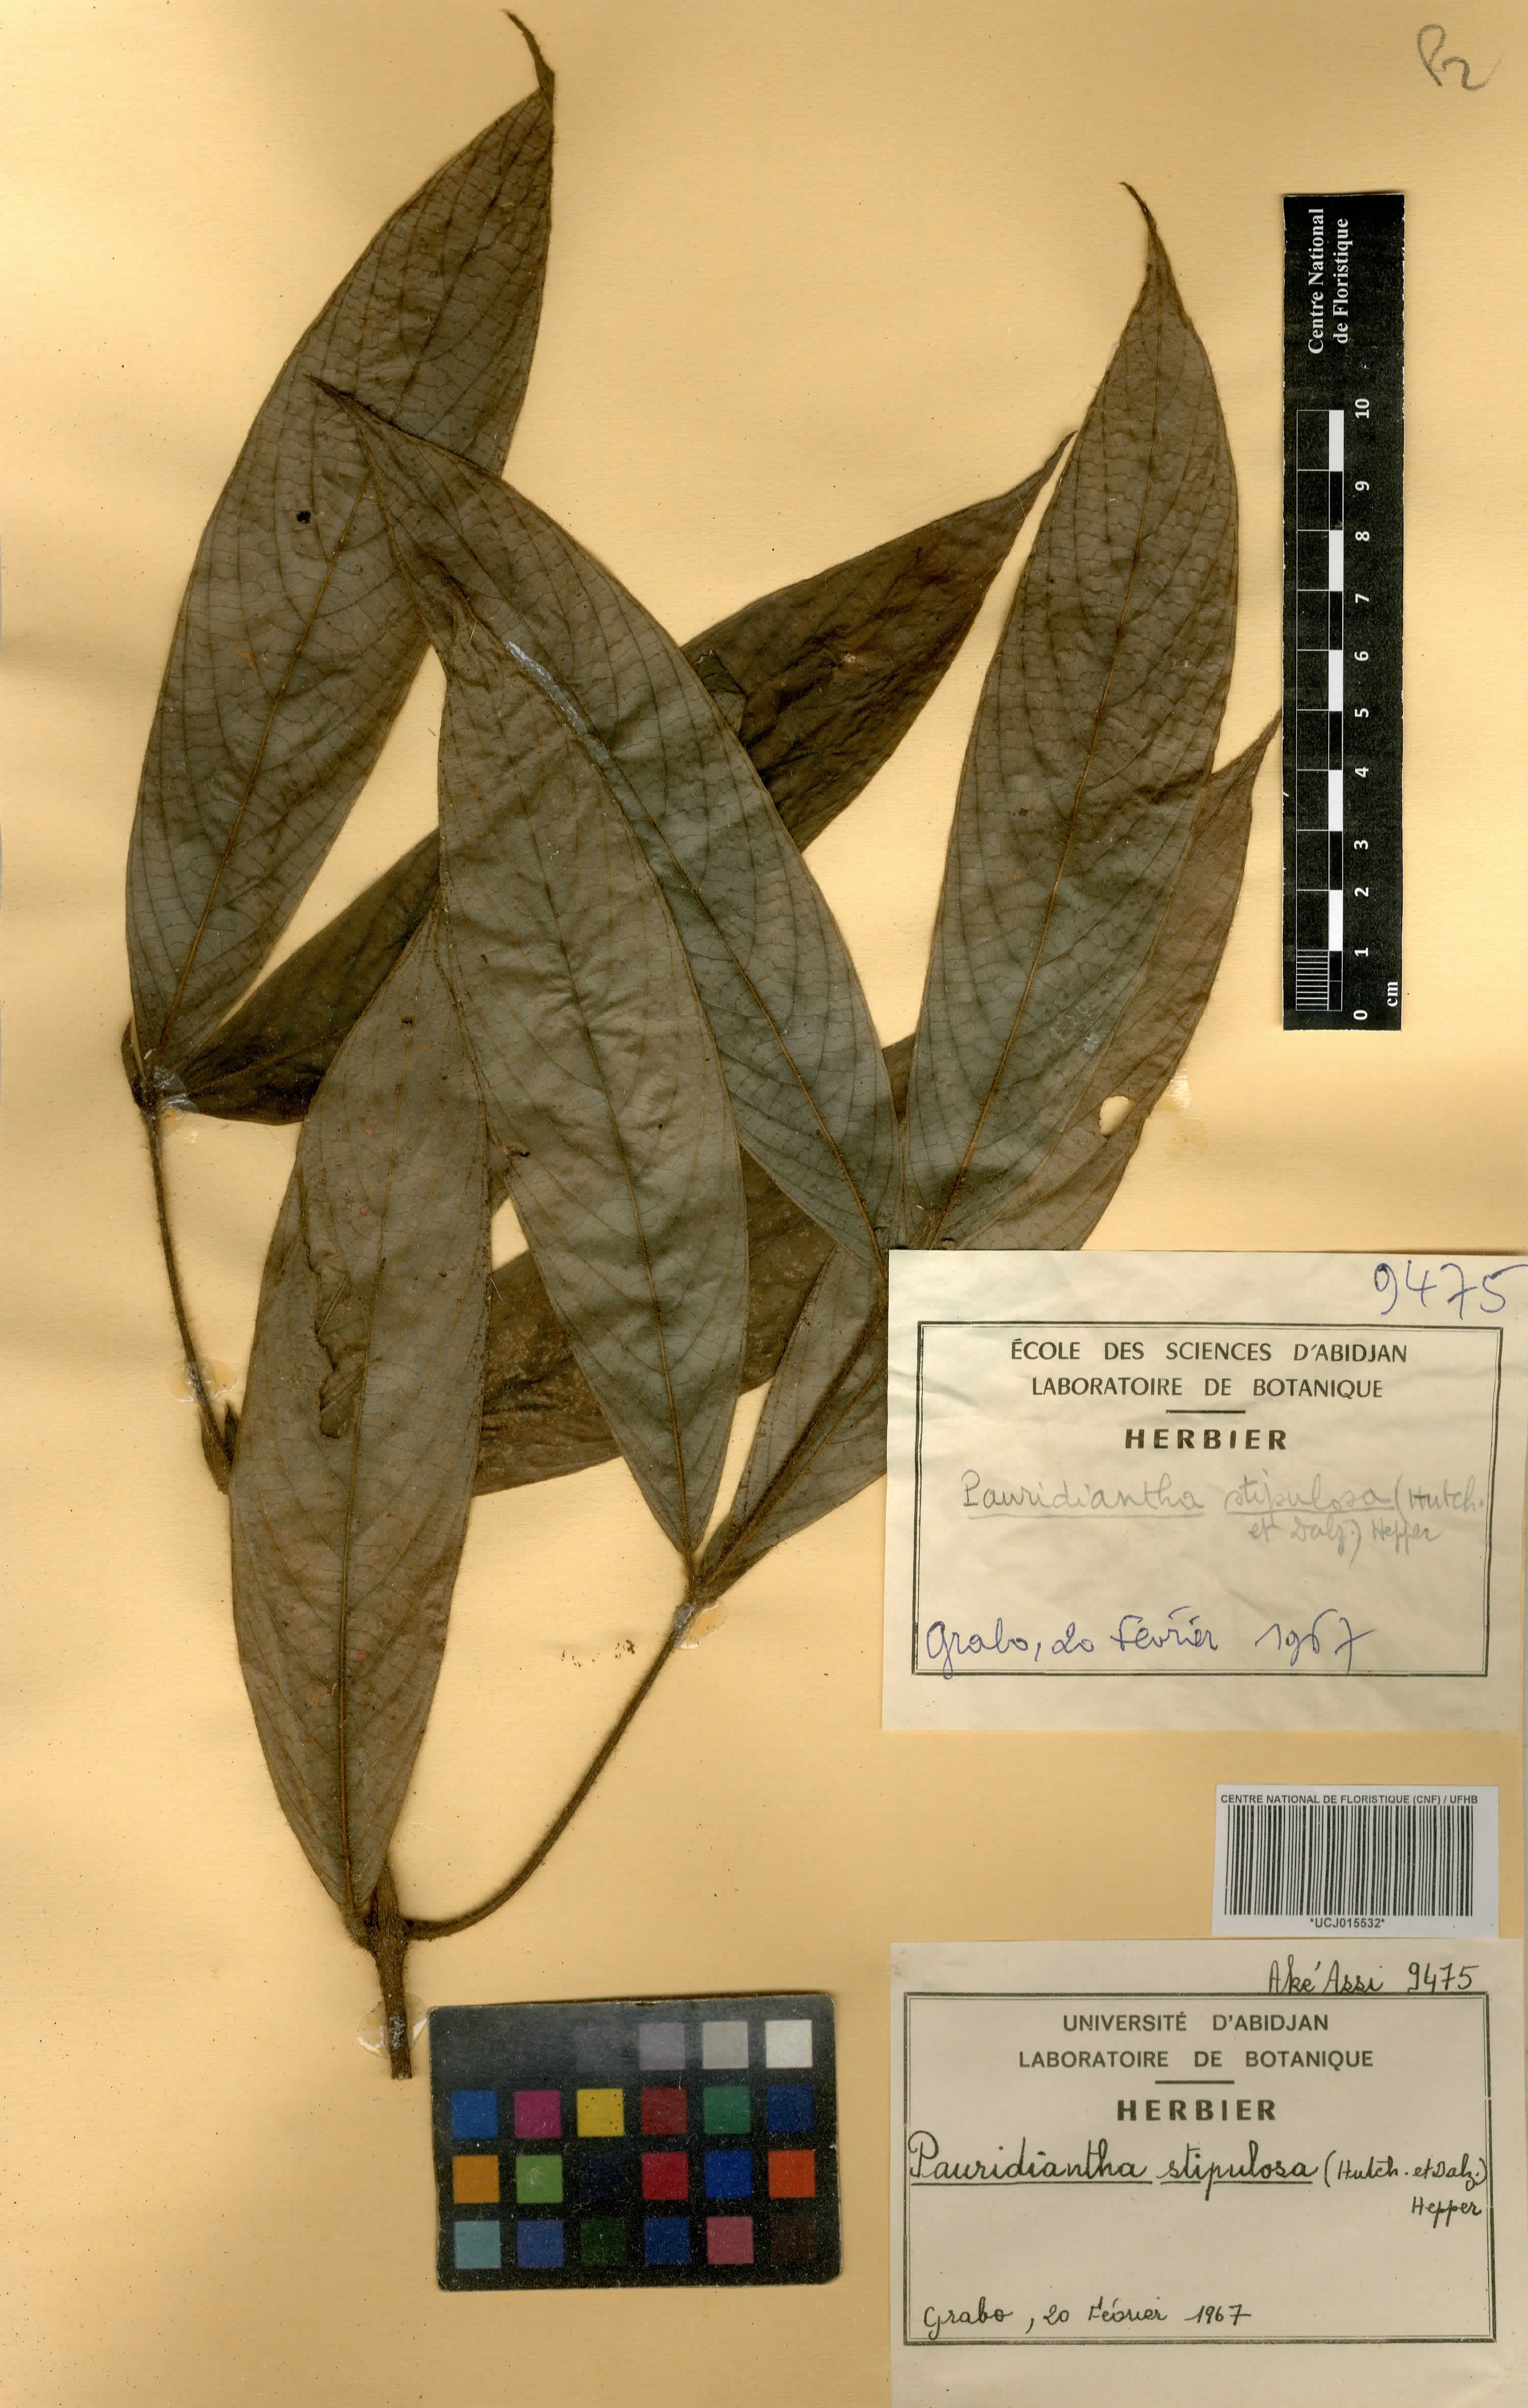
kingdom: Plantae
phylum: Tracheophyta
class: Magnoliopsida
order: Gentianales
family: Rubiaceae
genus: Pauridiantha
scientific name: Pauridiantha stipulosa
